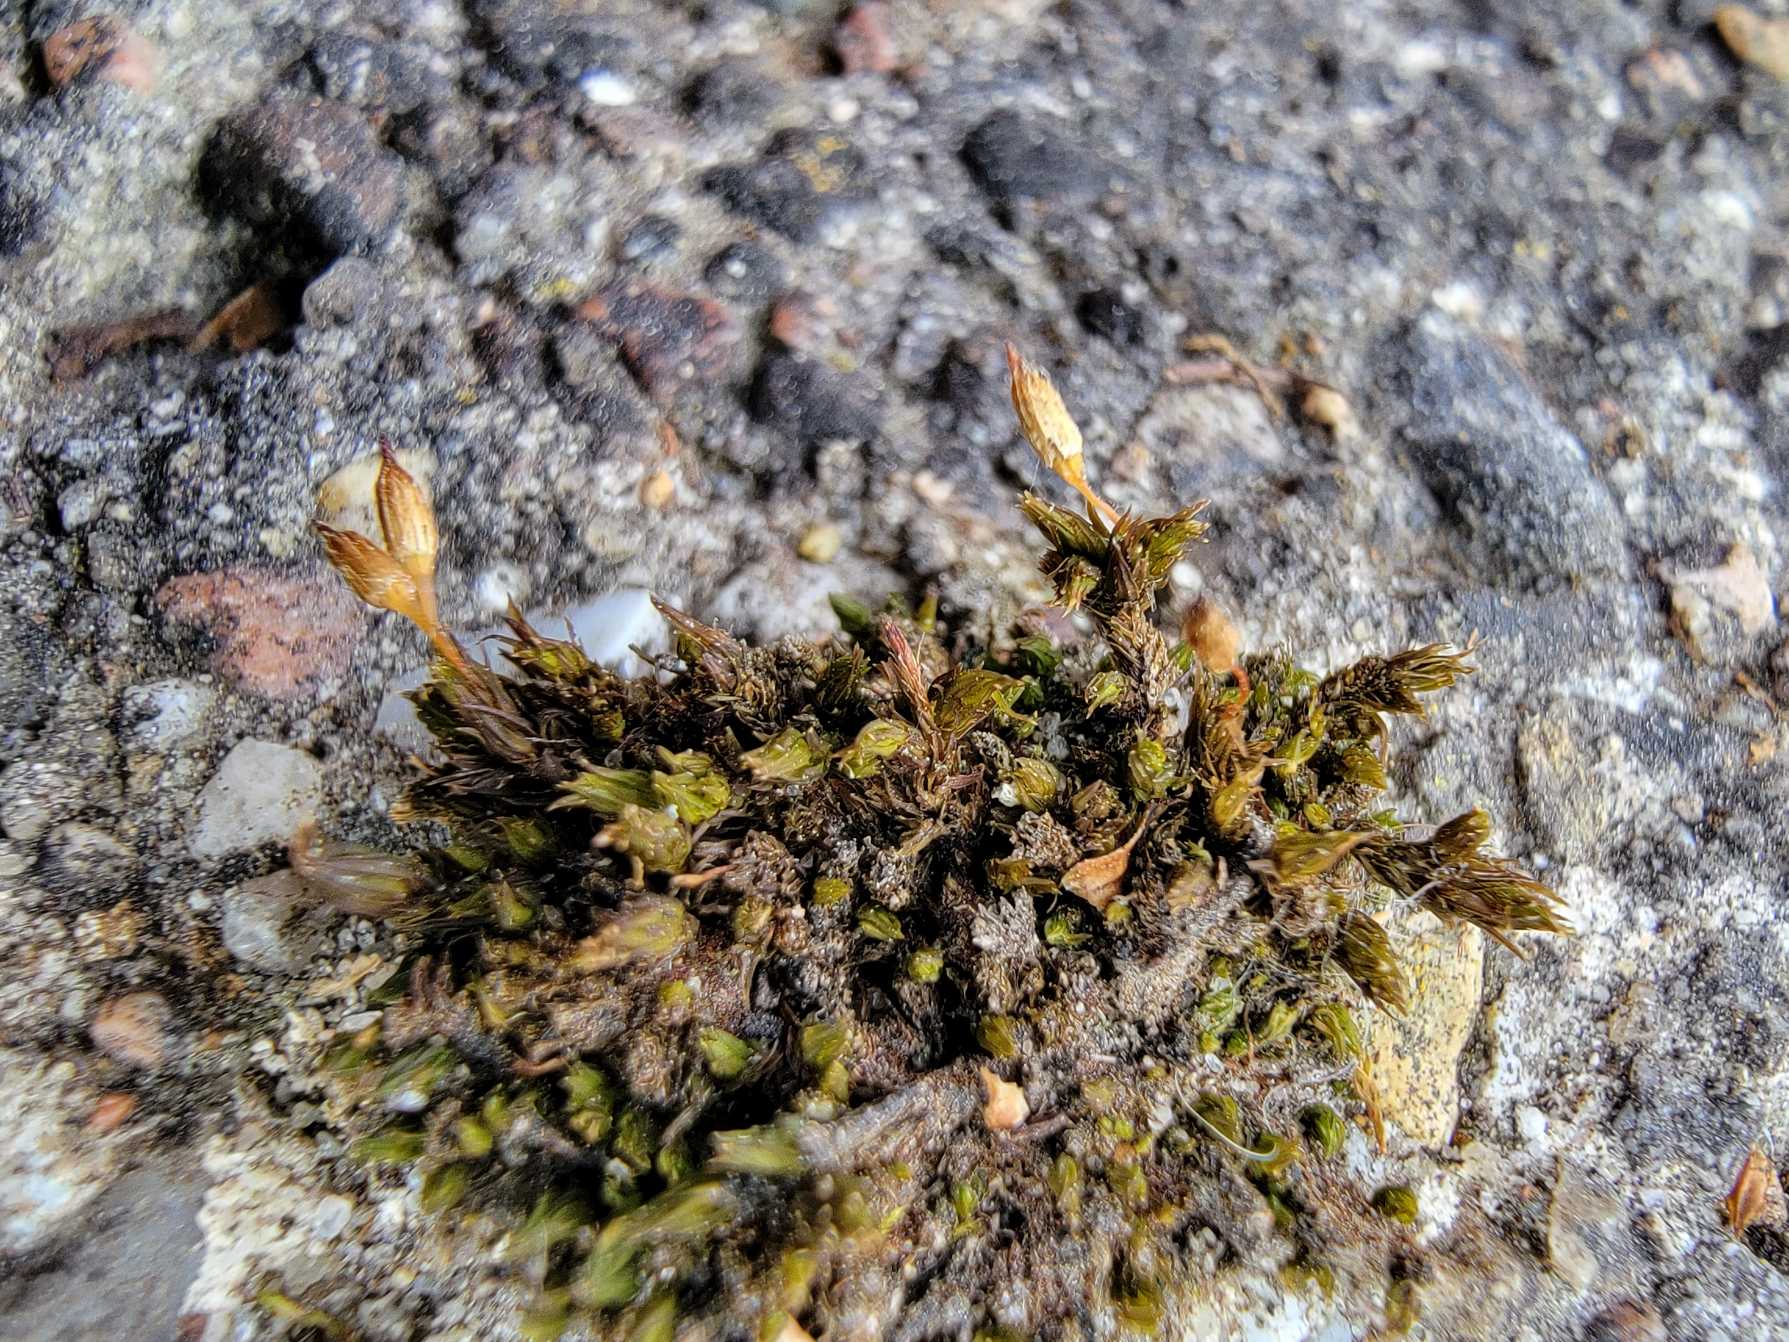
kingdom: Plantae
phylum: Bryophyta
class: Bryopsida
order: Orthotrichales
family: Orthotrichaceae
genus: Orthotrichum
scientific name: Orthotrichum anomalum
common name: Mørk furehætte
